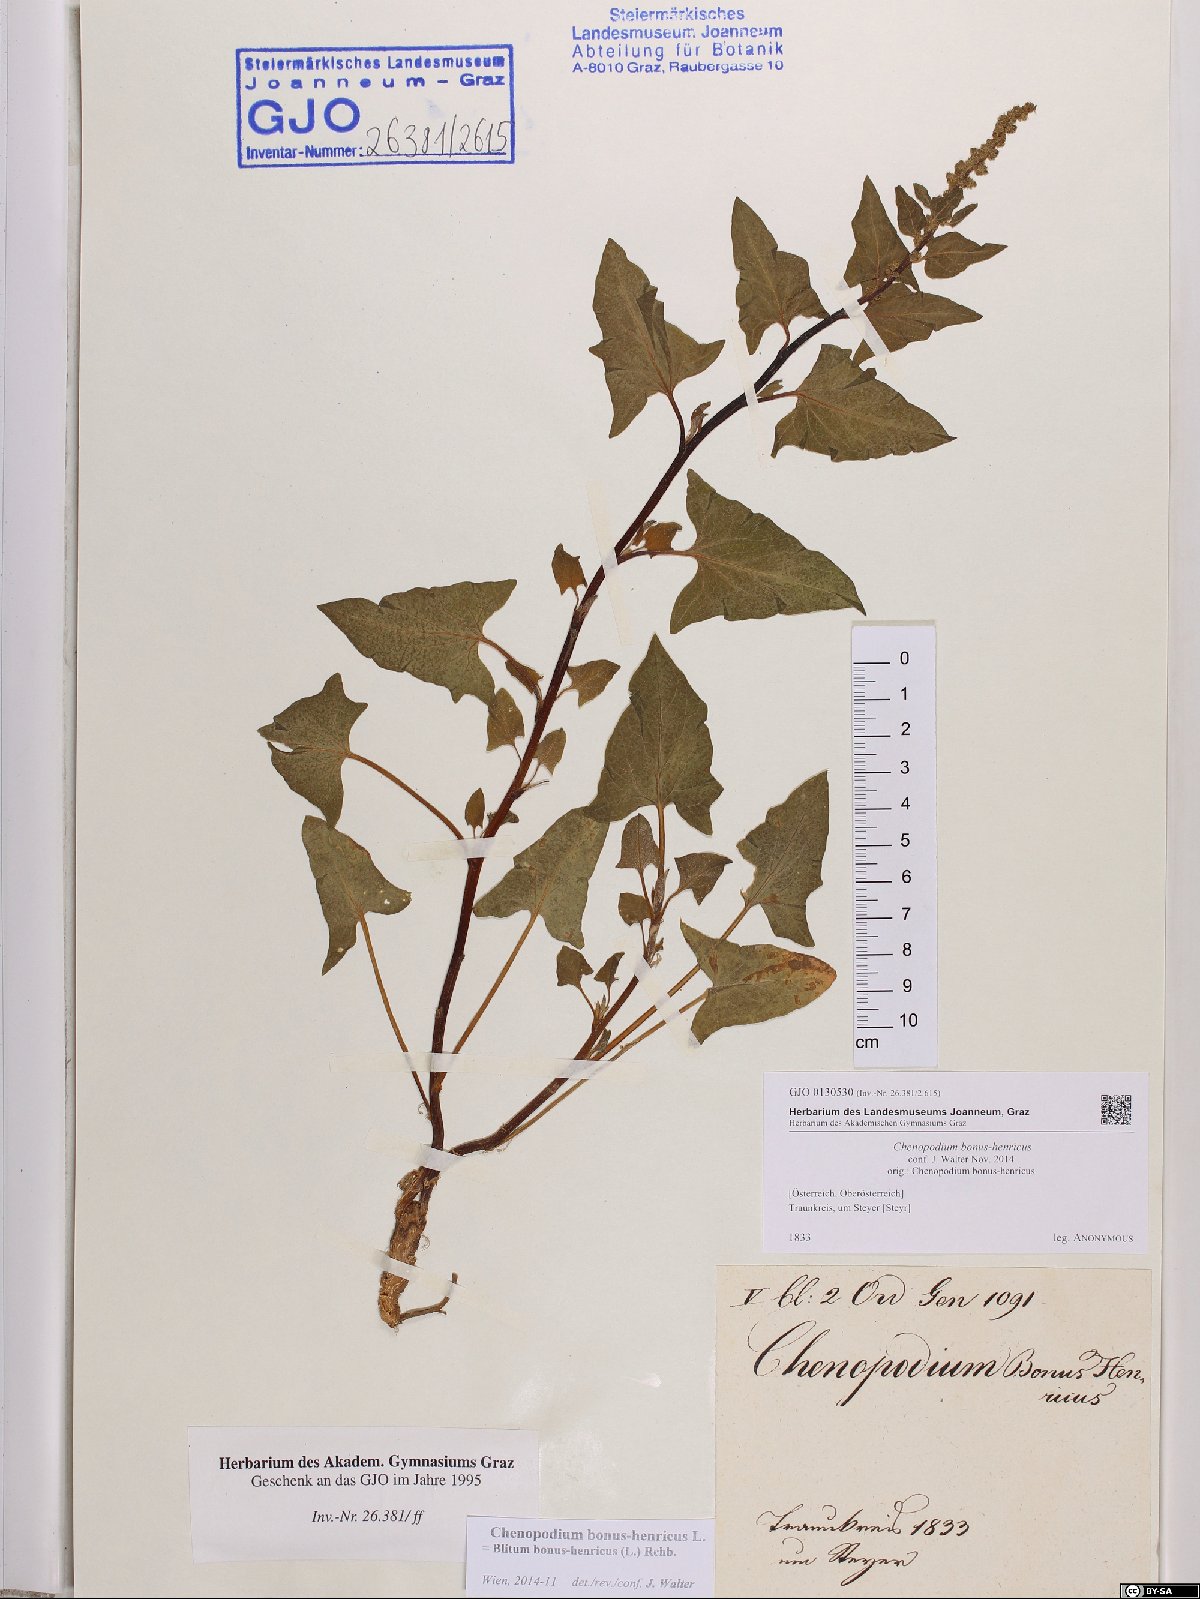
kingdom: Plantae
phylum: Tracheophyta
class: Magnoliopsida
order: Caryophyllales
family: Amaranthaceae
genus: Blitum
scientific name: Blitum bonus-henricus
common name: Good king henry
